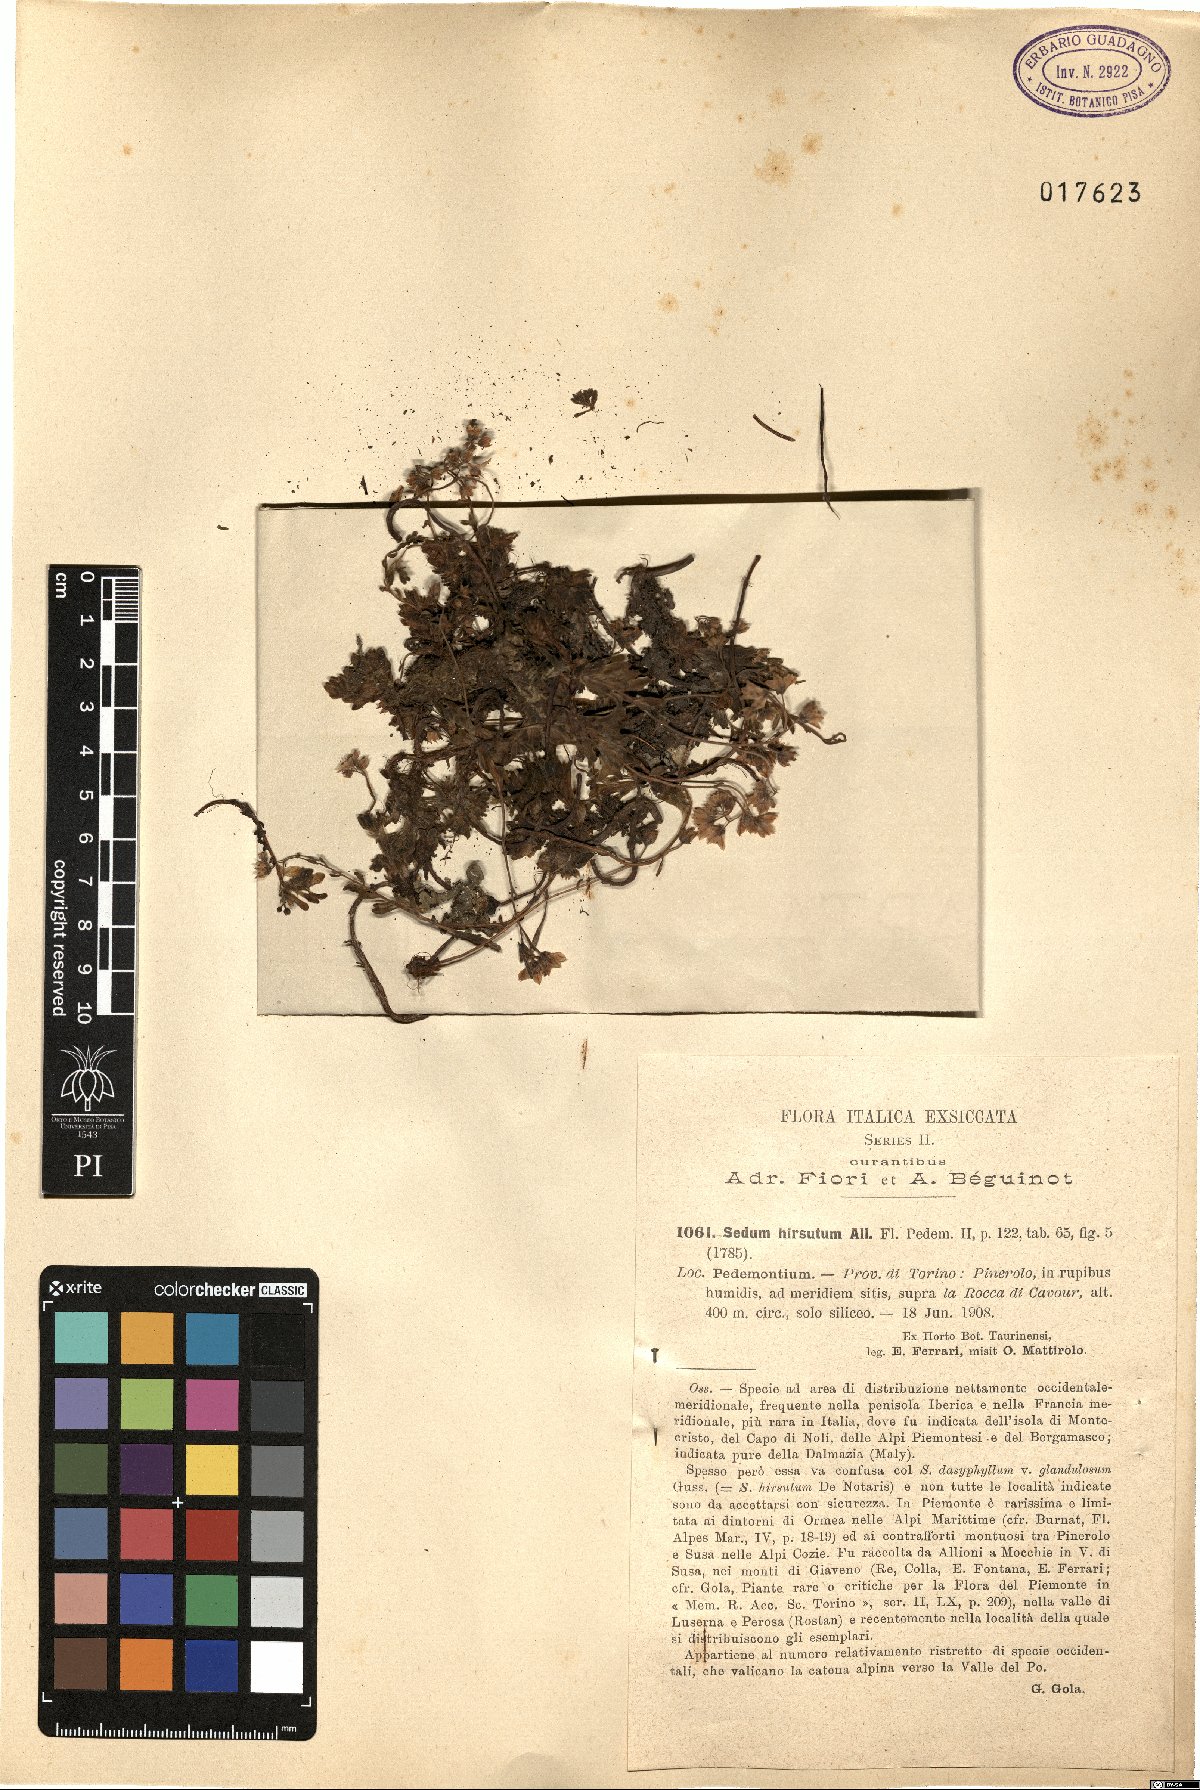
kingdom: Plantae
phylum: Tracheophyta
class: Magnoliopsida
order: Saxifragales
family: Crassulaceae
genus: Sedum
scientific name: Sedum hirsutum
